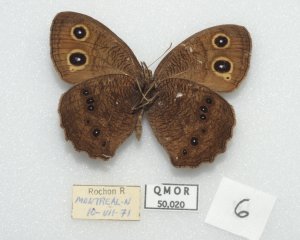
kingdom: Animalia
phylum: Arthropoda
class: Insecta
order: Lepidoptera
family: Nymphalidae
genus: Cercyonis
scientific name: Cercyonis pegala
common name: Common Wood-Nymph
